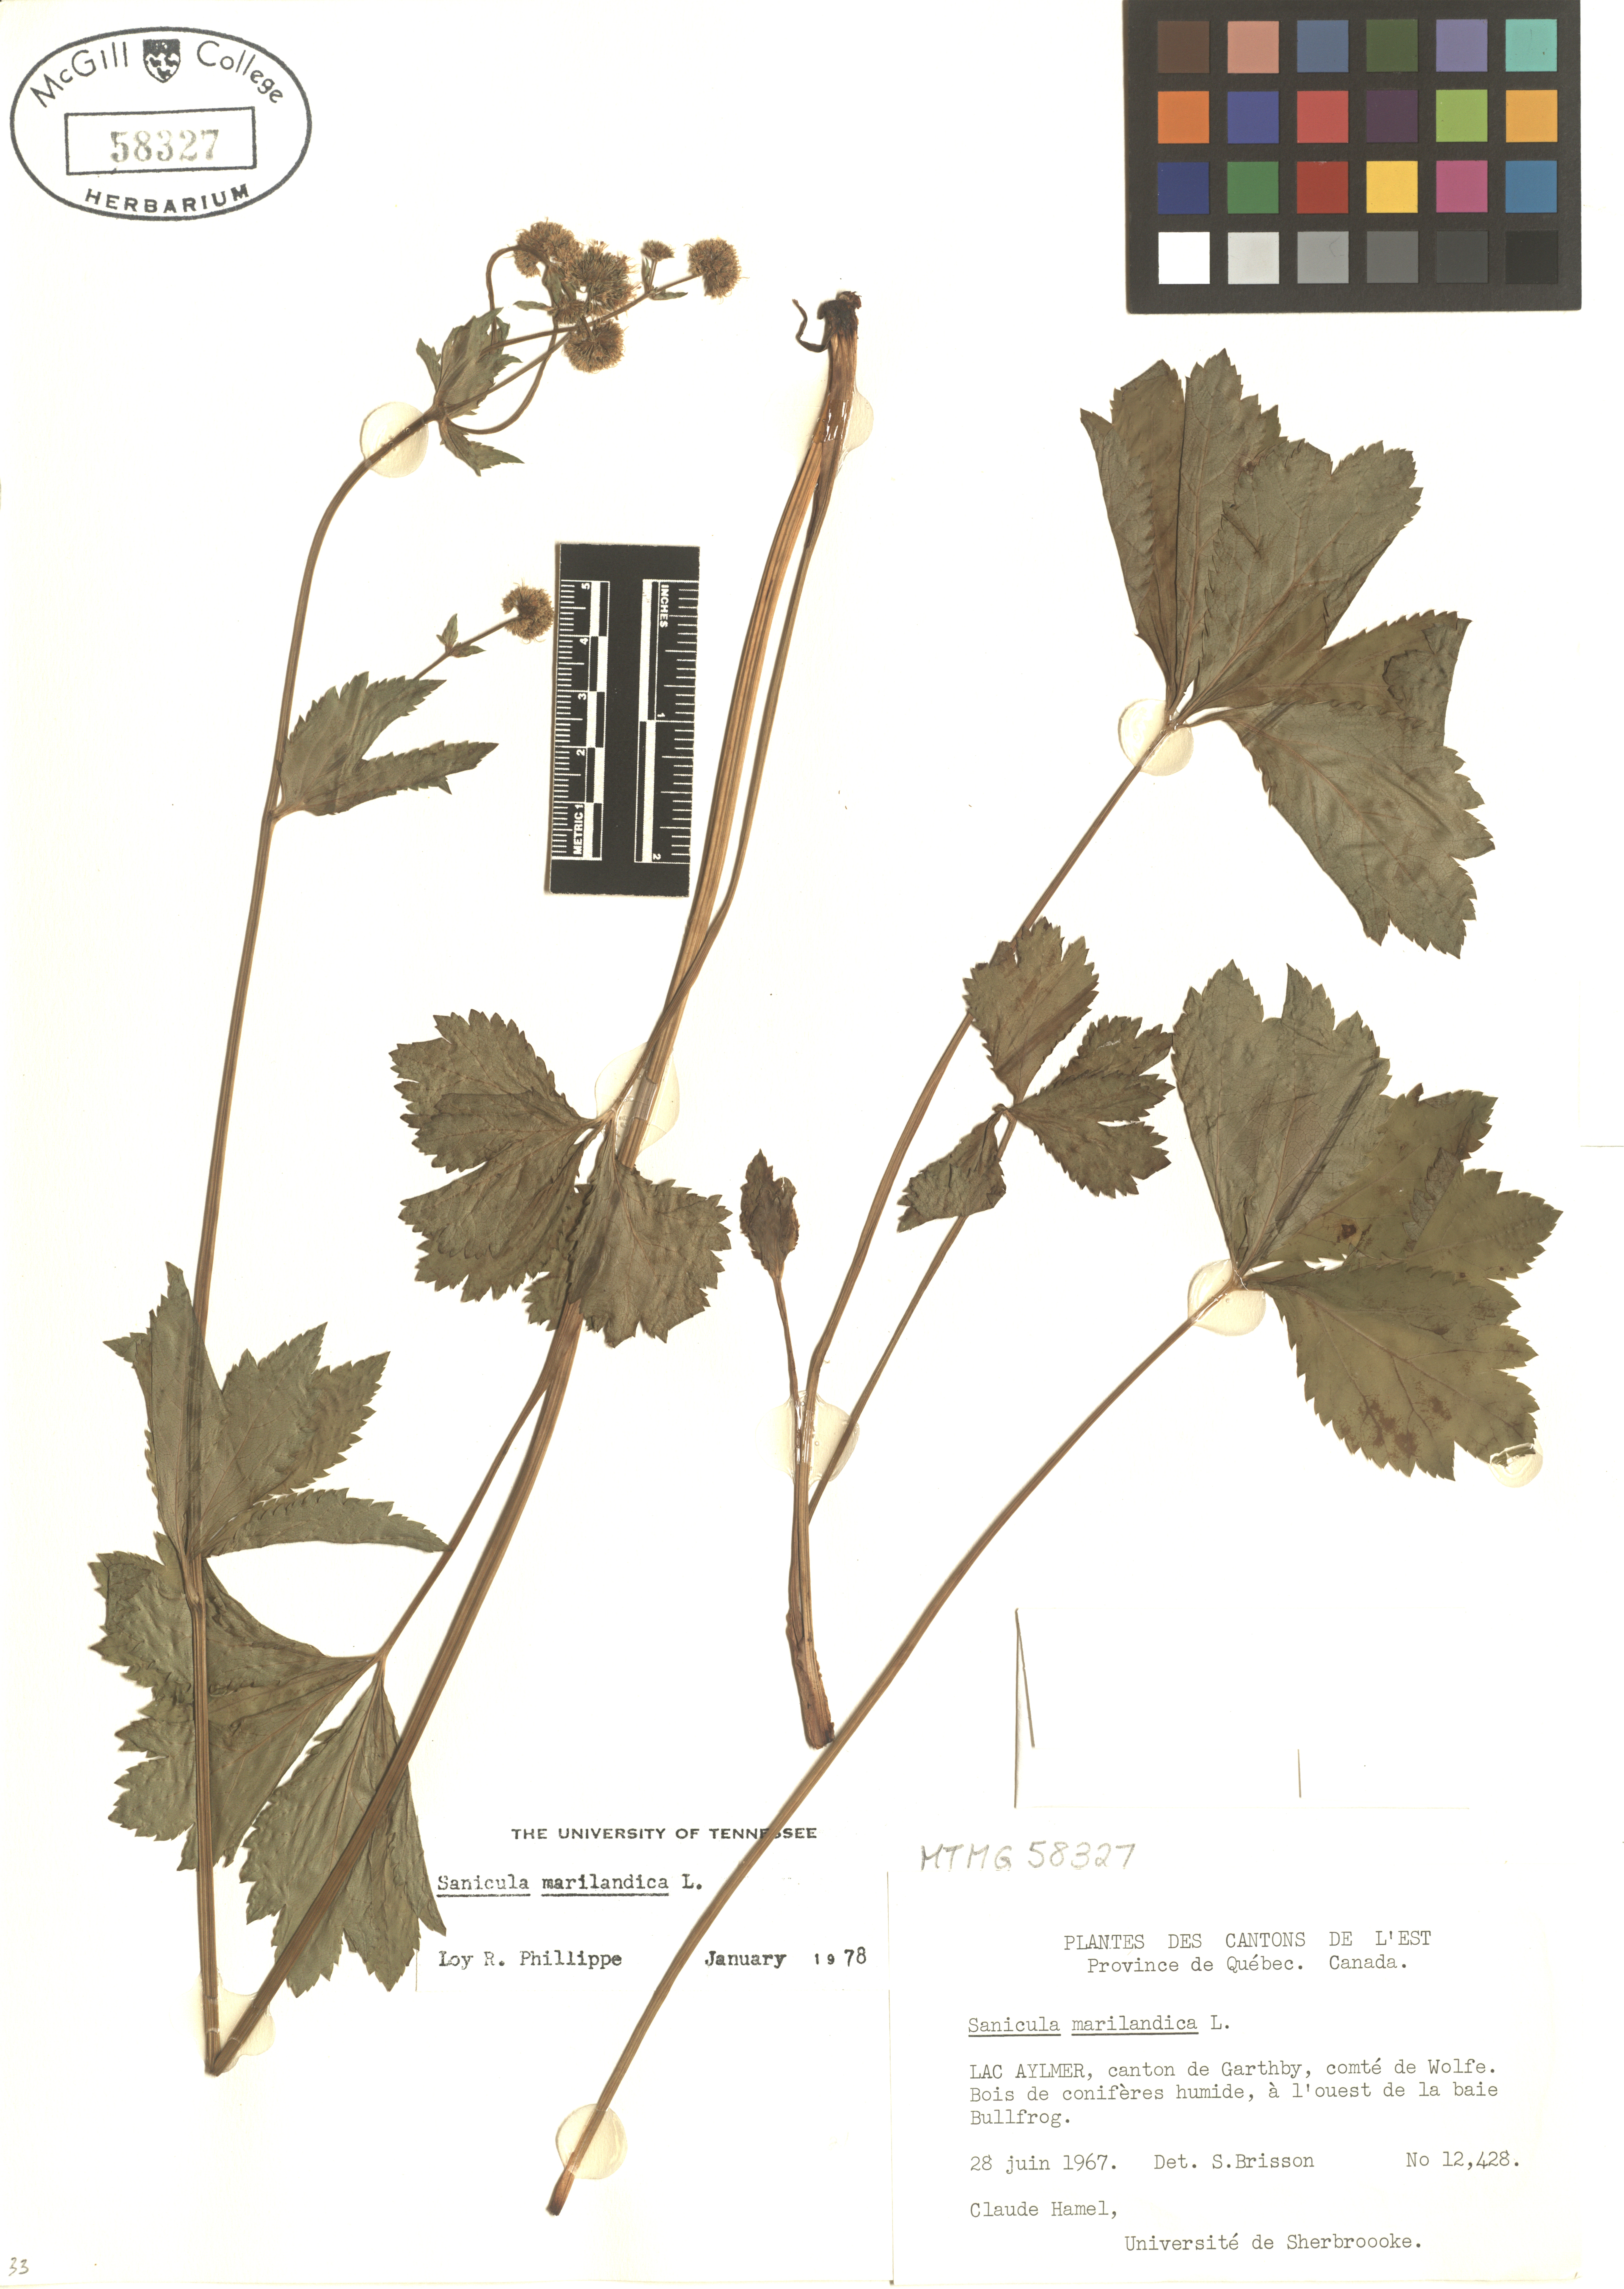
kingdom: Plantae
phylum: Tracheophyta
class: Magnoliopsida
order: Apiales
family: Apiaceae
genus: Sanicula
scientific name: Sanicula marilandica
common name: Black snakeroot
